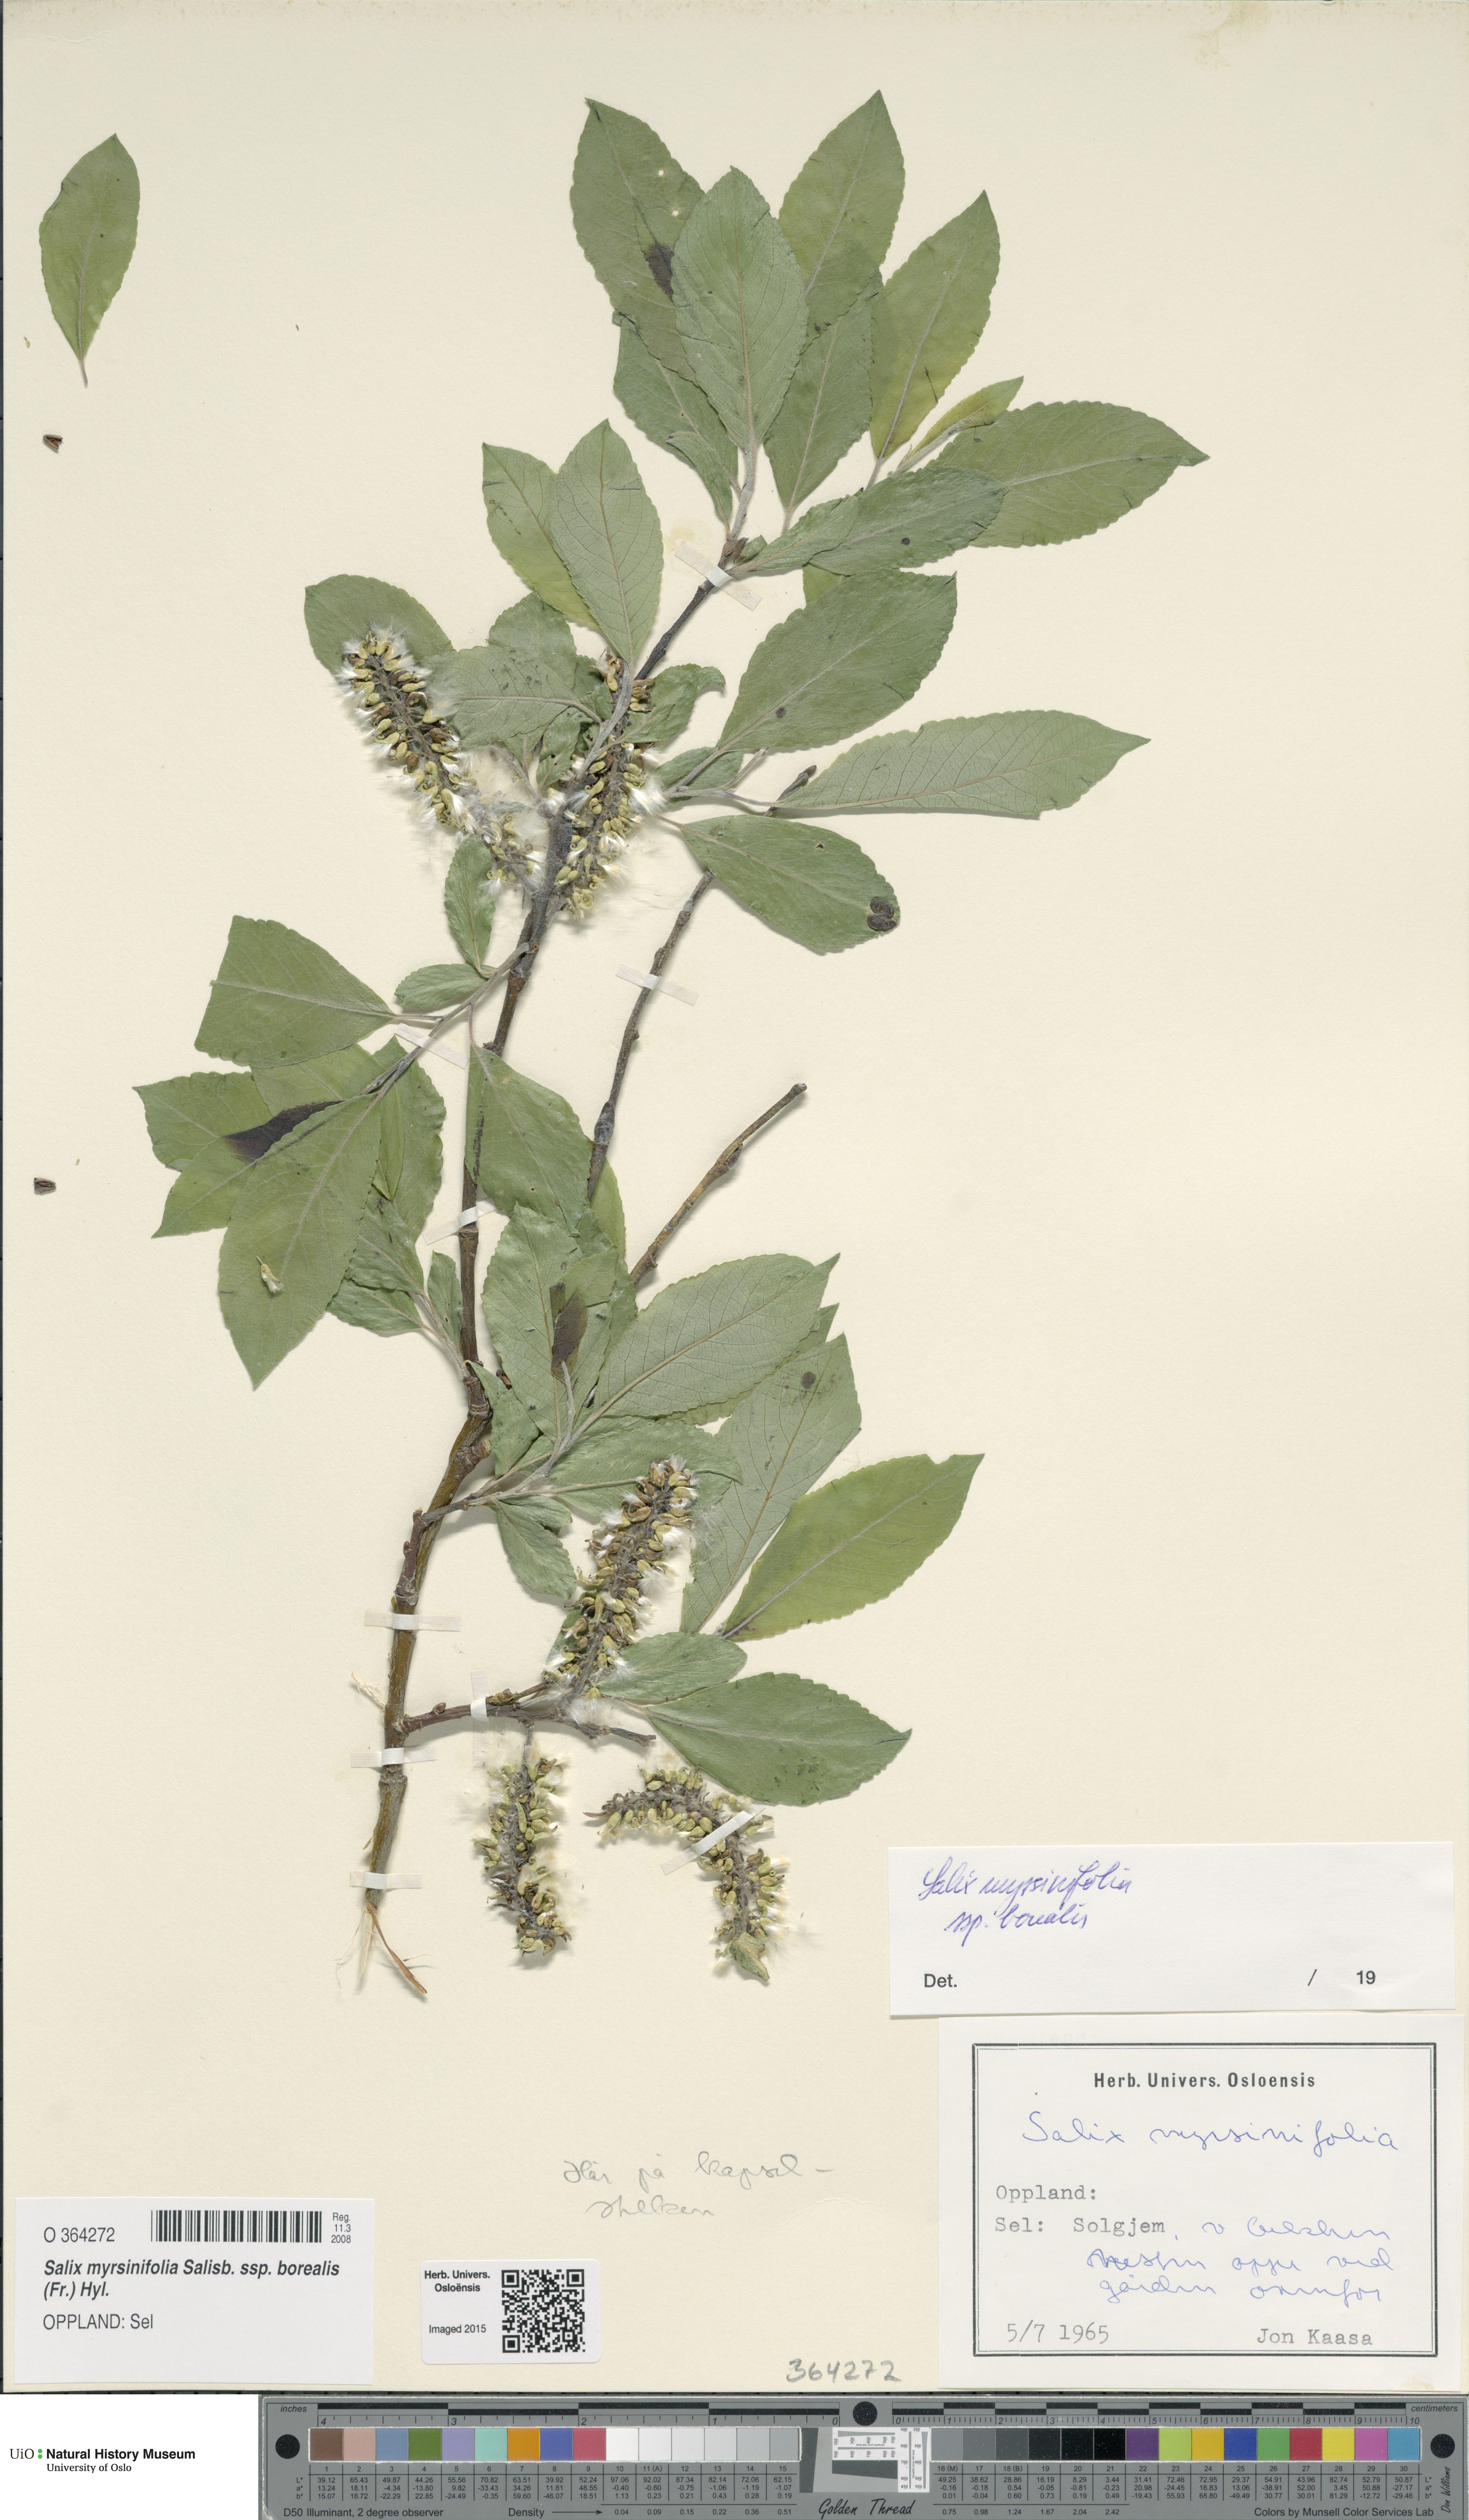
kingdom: Plantae
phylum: Tracheophyta
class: Magnoliopsida
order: Malpighiales
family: Salicaceae
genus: Salix
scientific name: Salix myrsinifolia
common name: Dark-leaved willow
